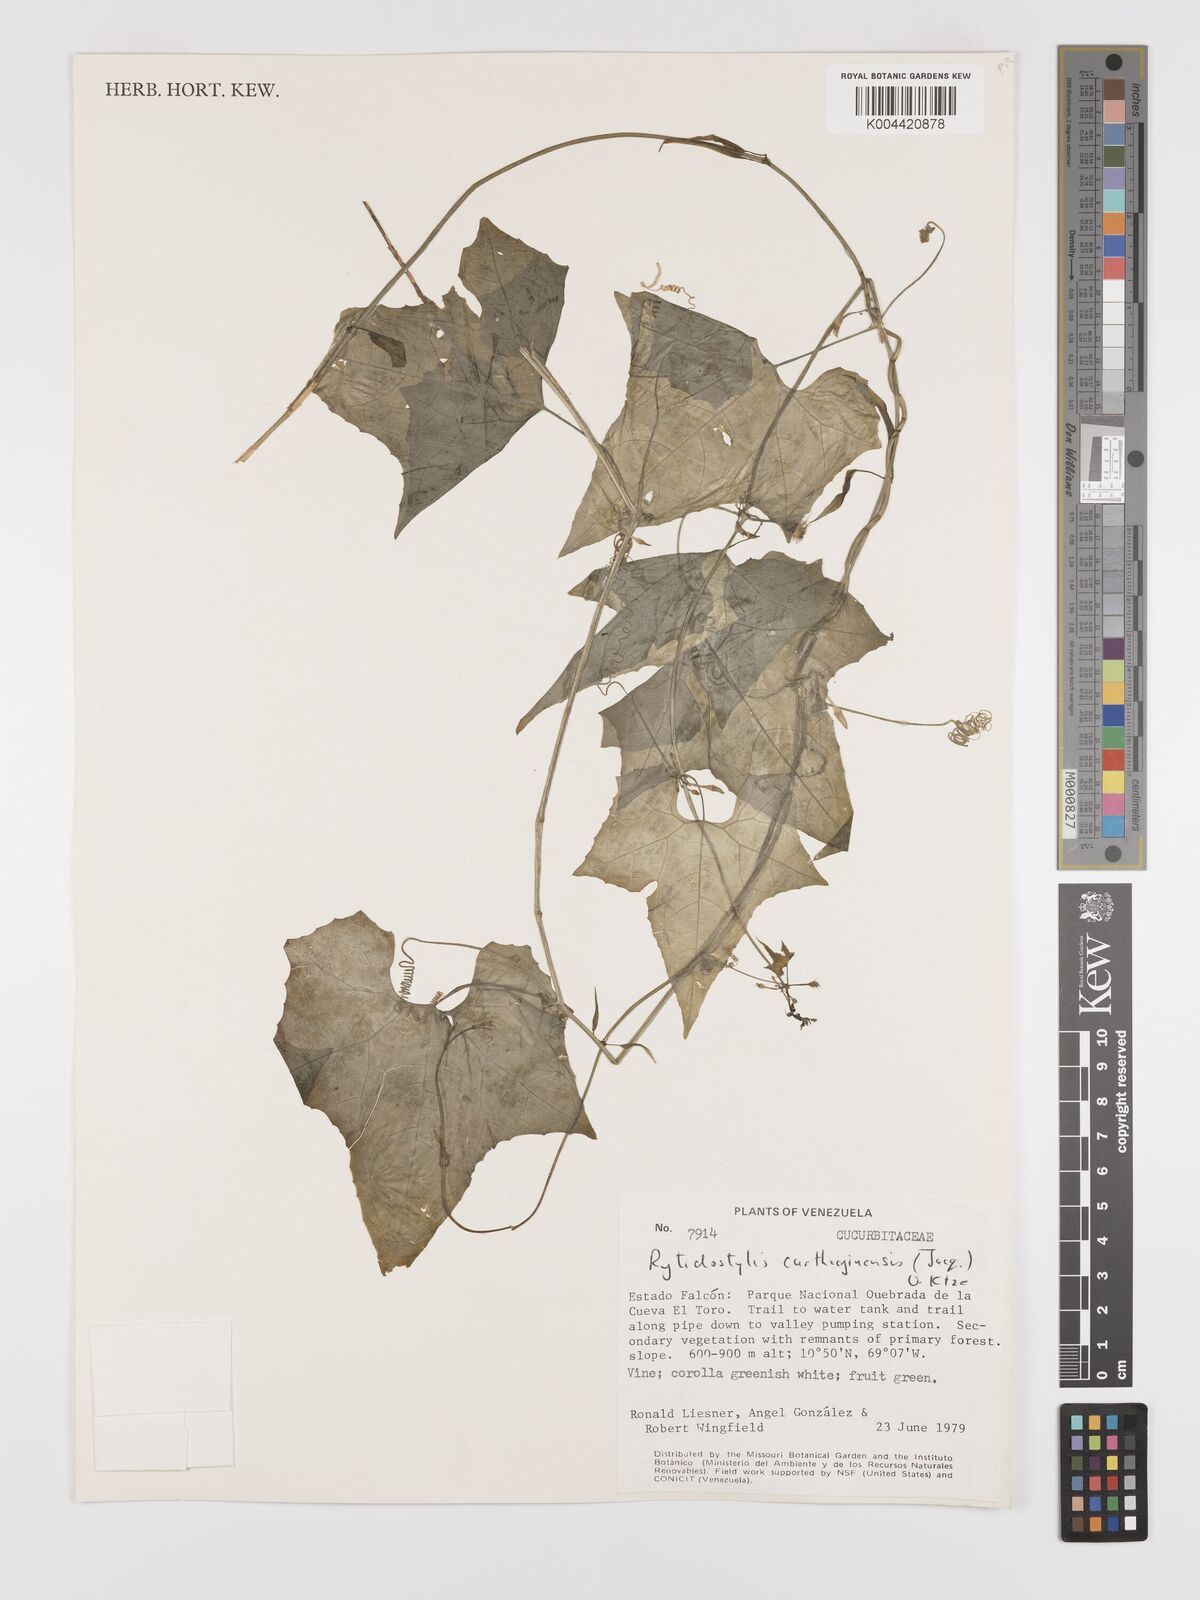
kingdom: Plantae
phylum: Tracheophyta
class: Magnoliopsida
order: Cucurbitales
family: Cucurbitaceae
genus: Cyclanthera
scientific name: Cyclanthera carthagenensis
